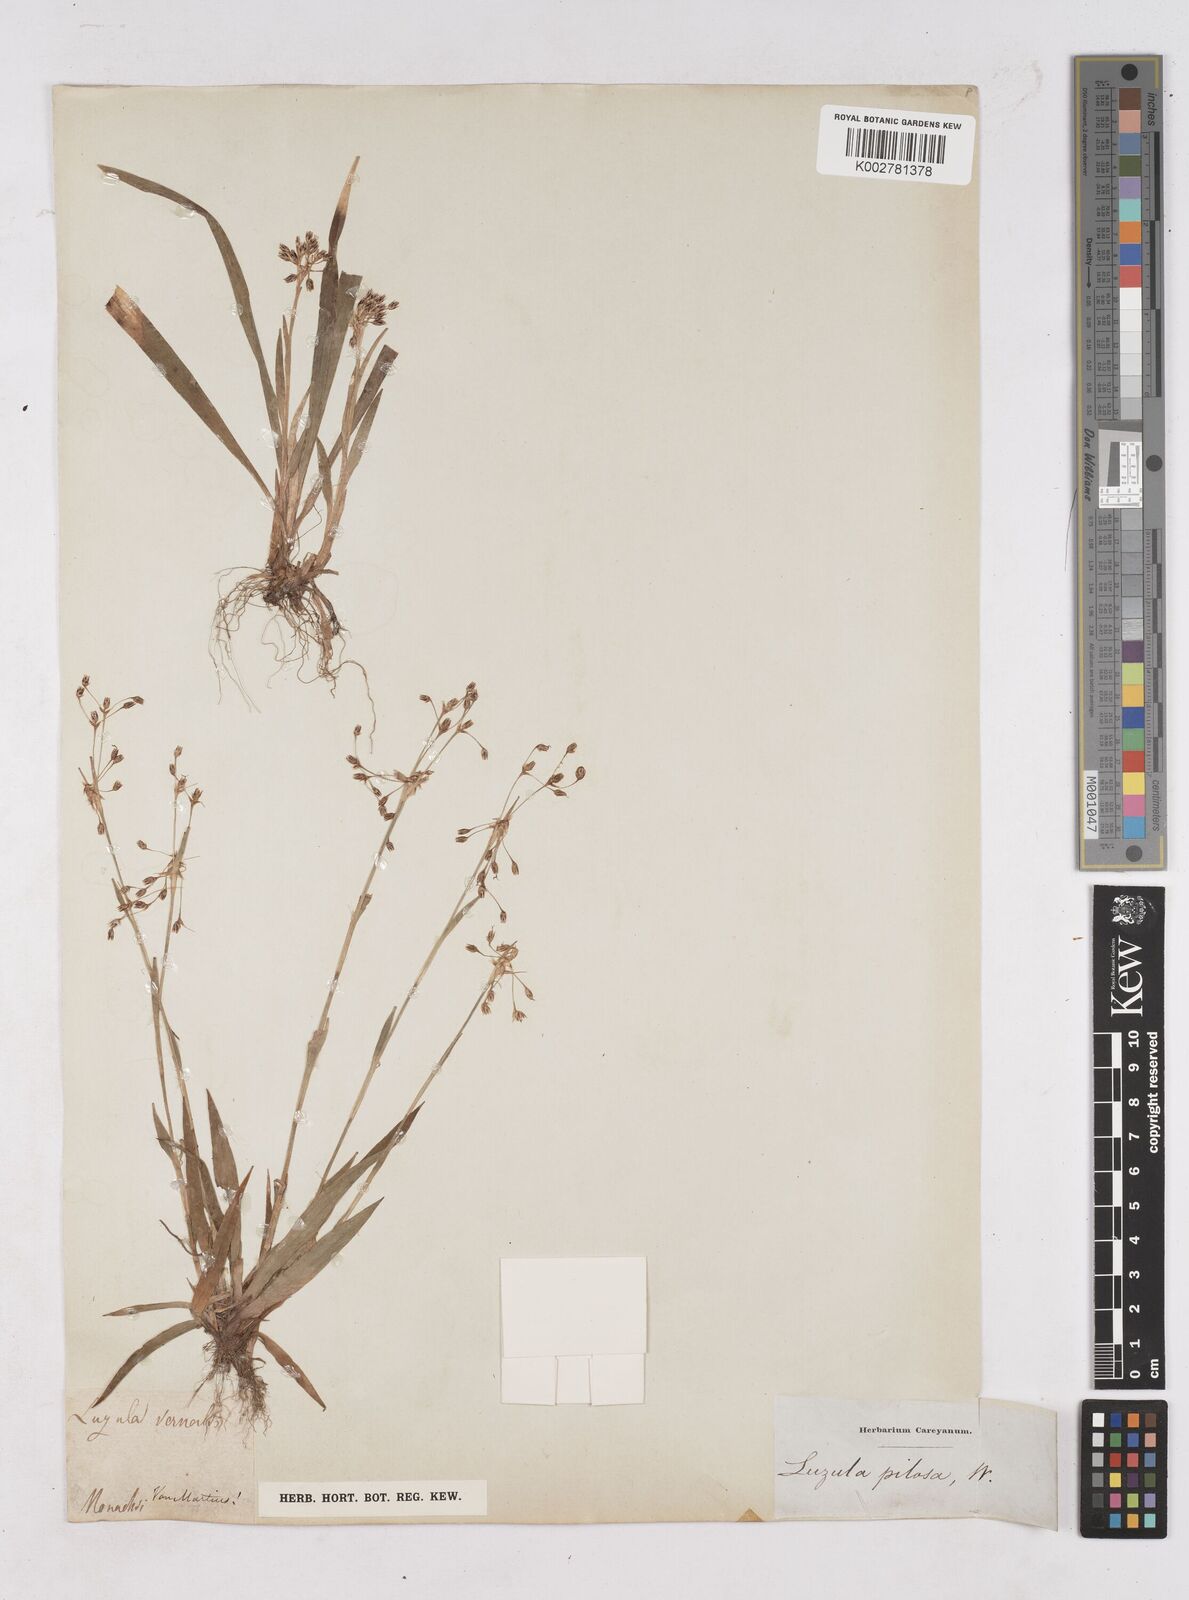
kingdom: Plantae
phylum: Tracheophyta
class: Liliopsida
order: Poales
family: Juncaceae
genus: Luzula
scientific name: Luzula pilosa
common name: Hairy wood-rush
